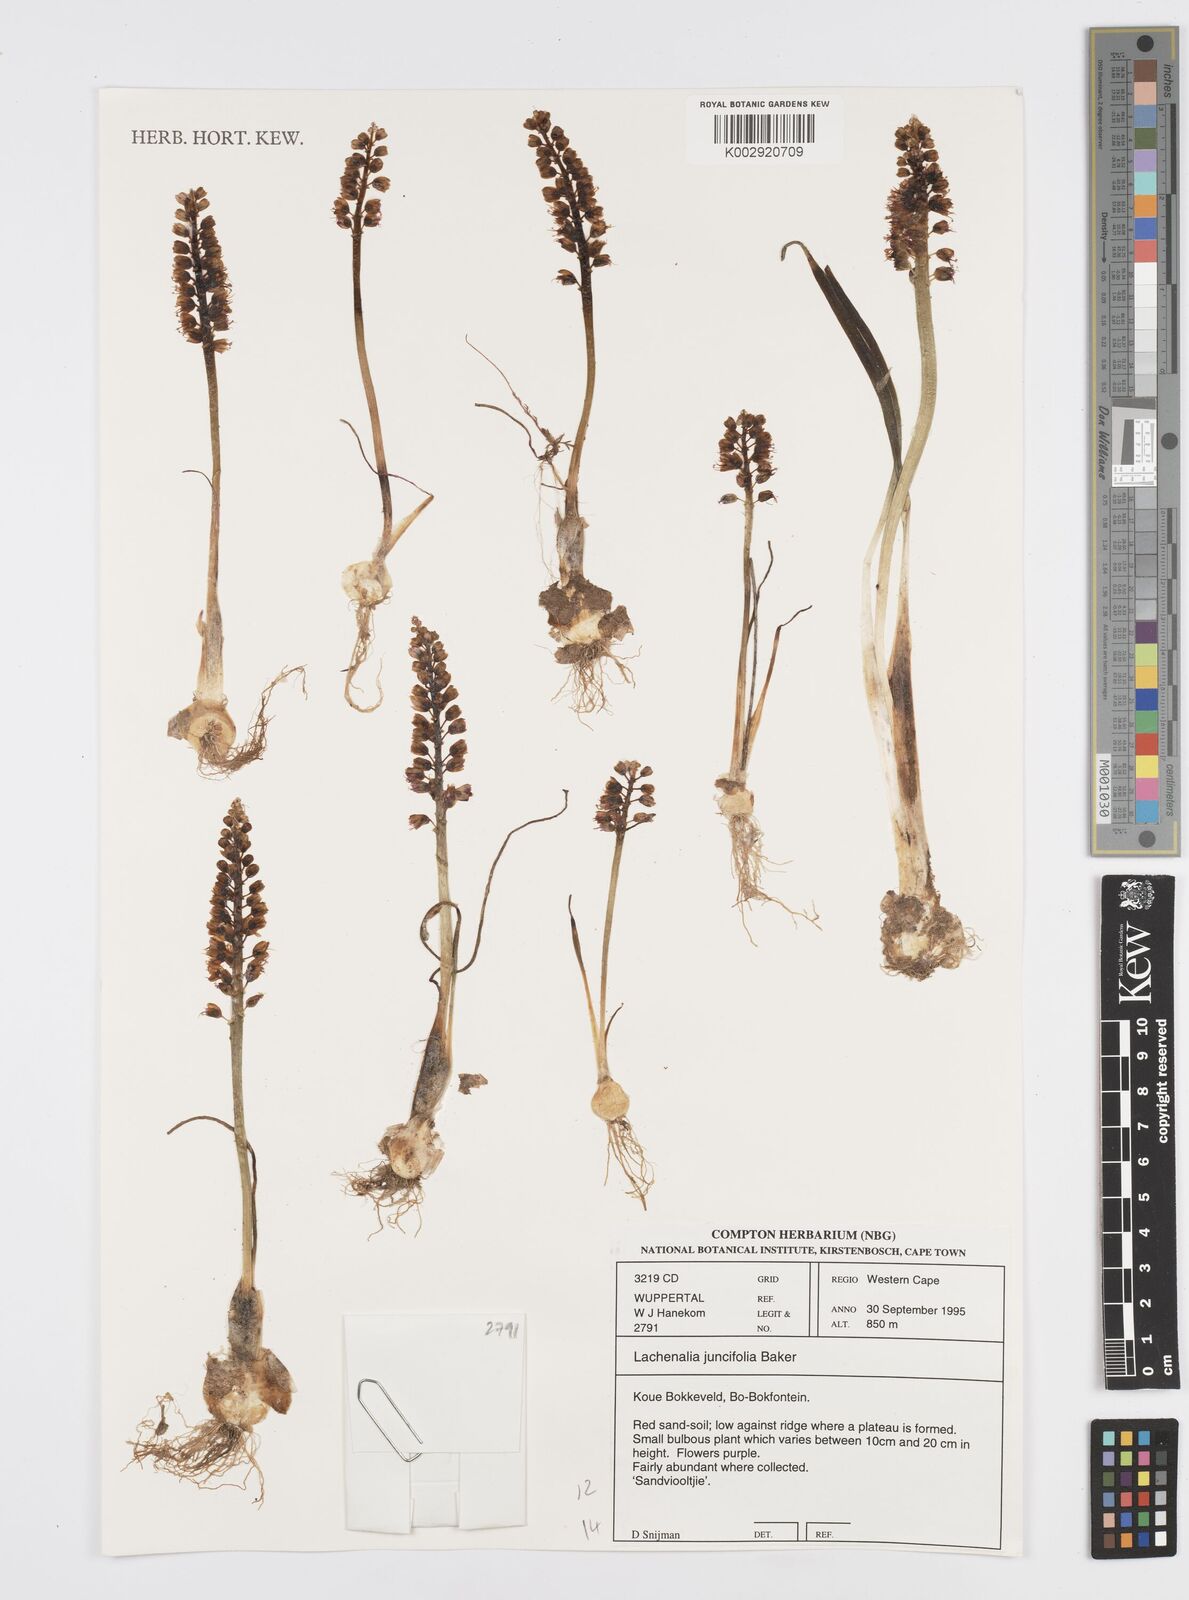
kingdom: Plantae
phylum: Tracheophyta
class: Liliopsida
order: Asparagales
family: Asparagaceae
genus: Lachenalia
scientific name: Lachenalia juncifolia
